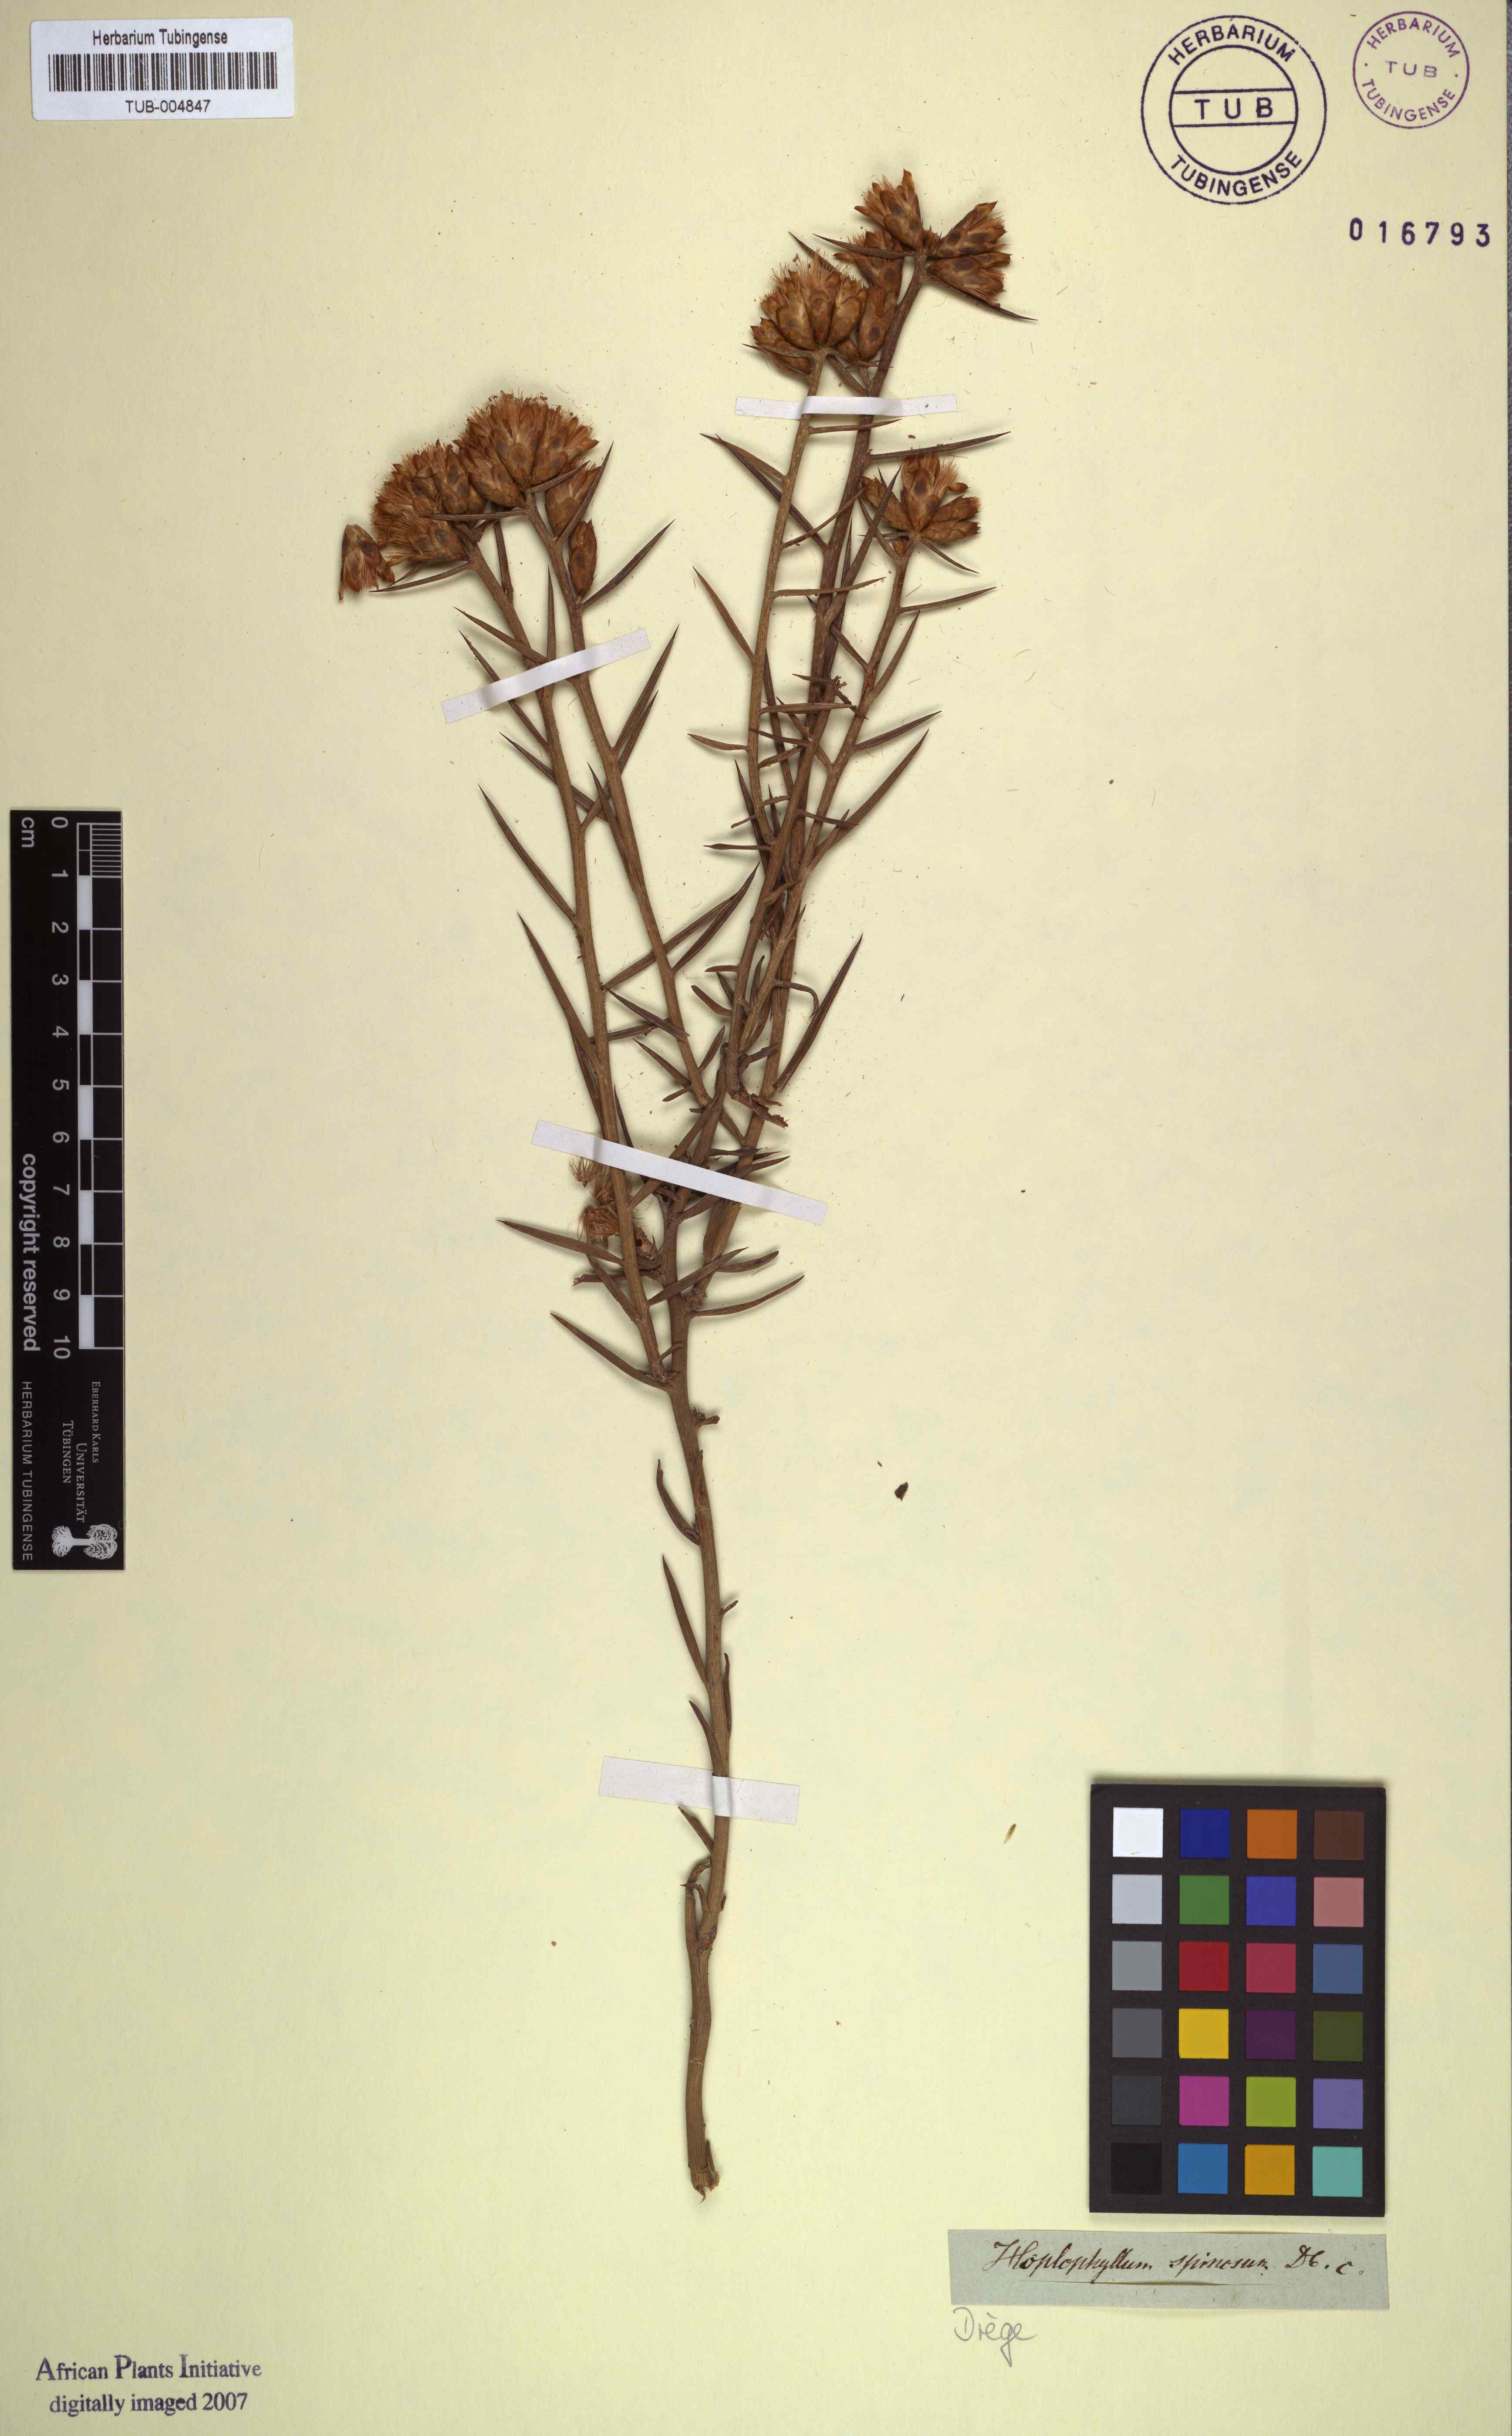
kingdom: Plantae
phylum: Tracheophyta
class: Magnoliopsida
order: Asterales
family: Asteraceae
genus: Hoplophyllum
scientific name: Hoplophyllum spinosum
